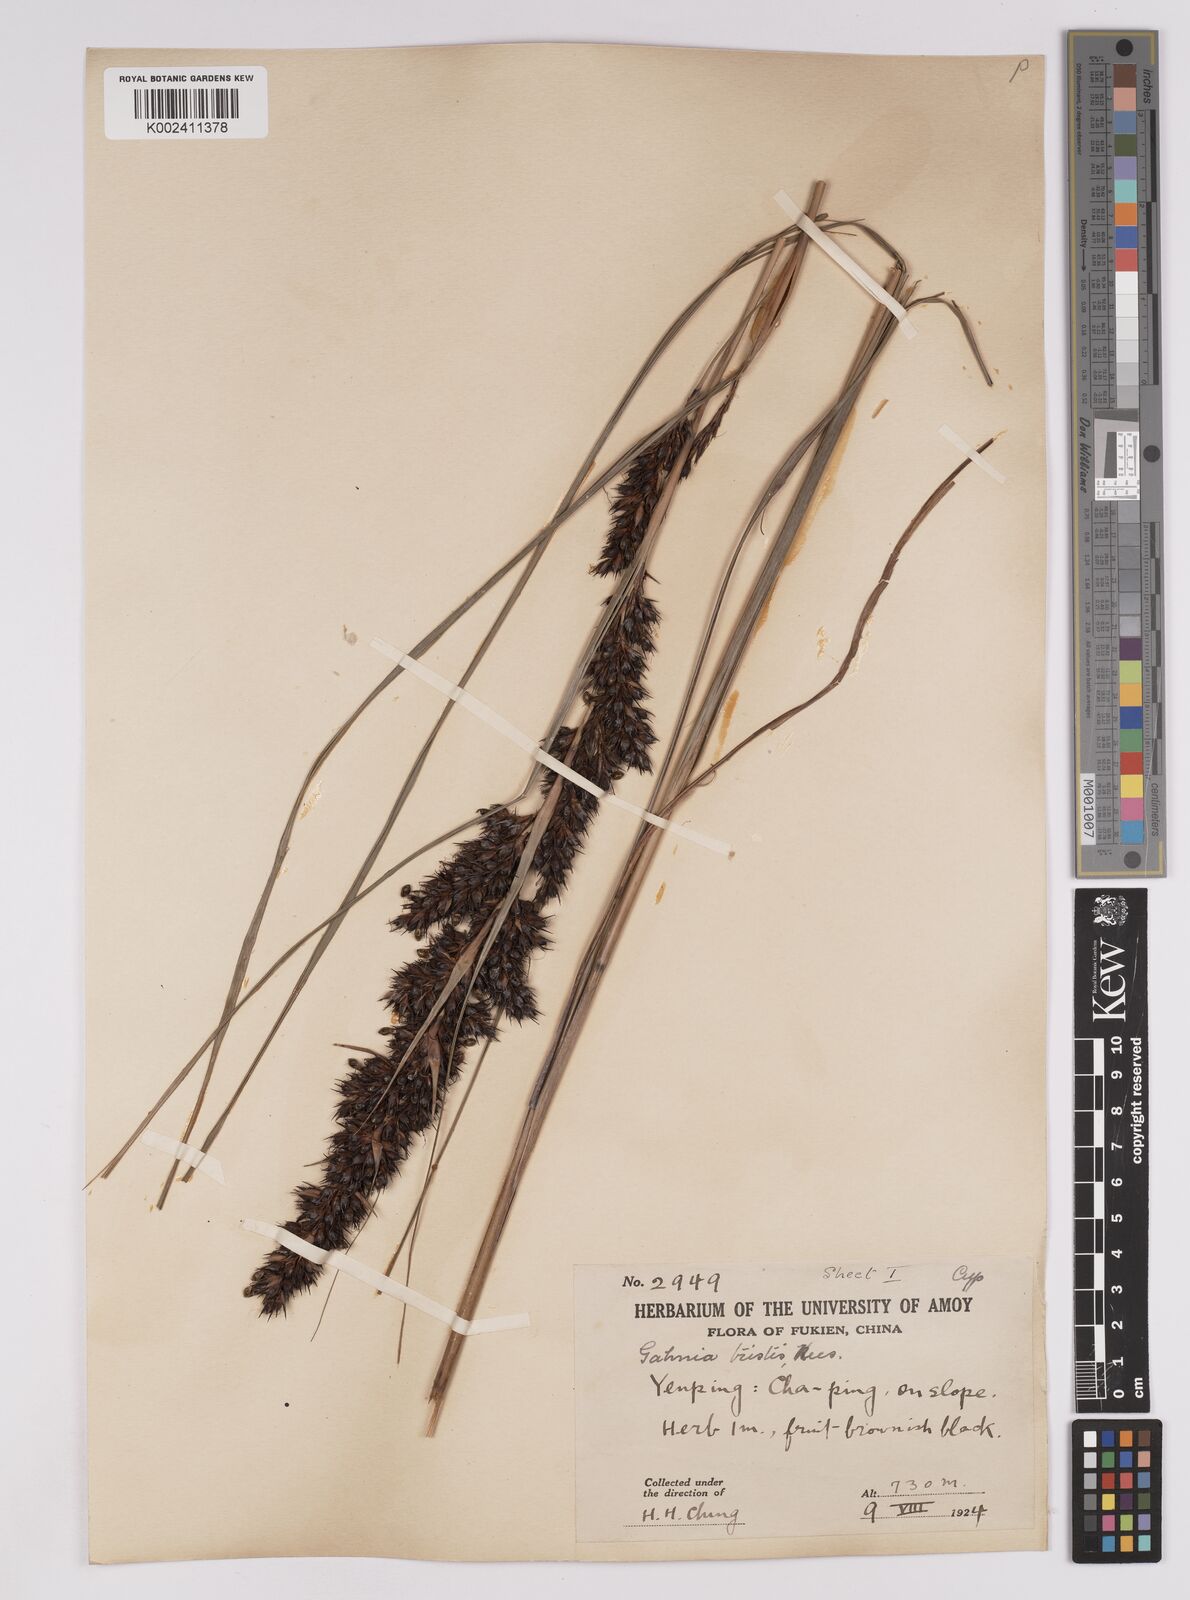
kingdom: Plantae
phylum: Tracheophyta
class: Liliopsida
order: Poales
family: Cyperaceae
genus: Gahnia
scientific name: Gahnia tristis
